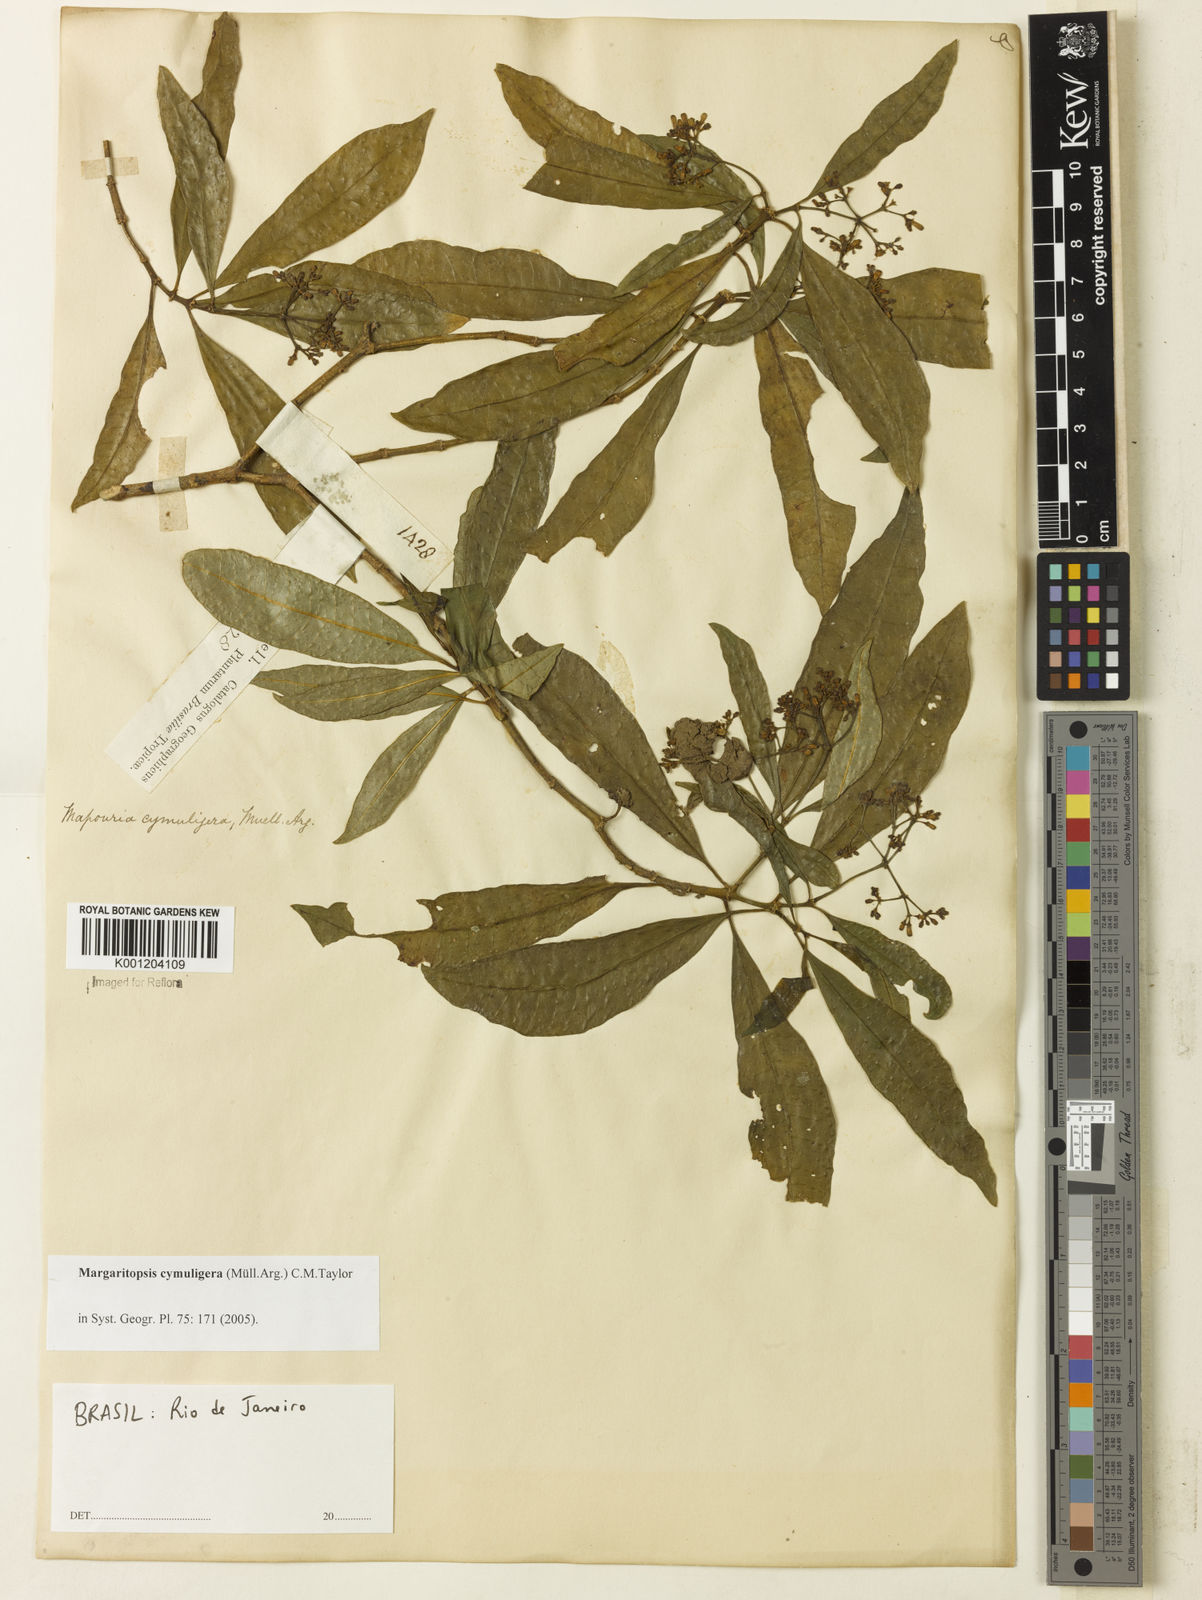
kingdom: Plantae
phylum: Tracheophyta
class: Magnoliopsida
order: Gentianales
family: Rubiaceae
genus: Eumachia
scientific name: Eumachia
